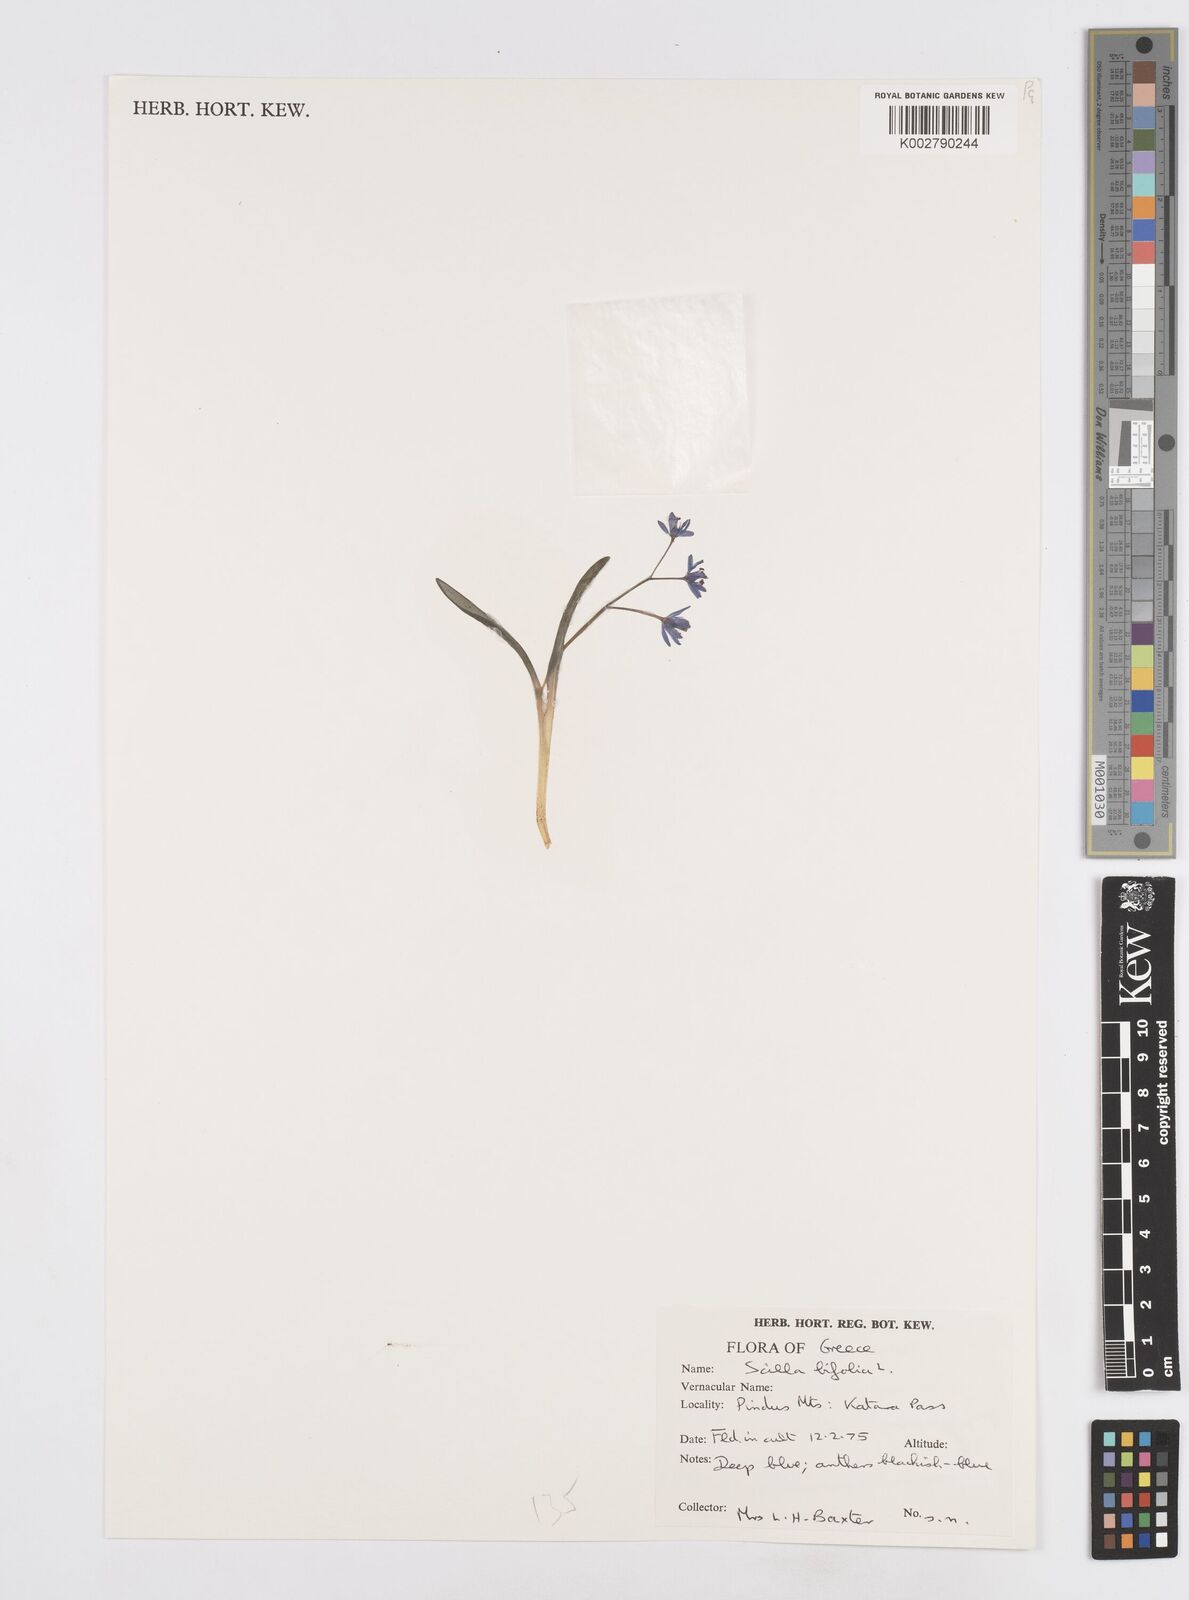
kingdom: Plantae
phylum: Tracheophyta
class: Liliopsida
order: Asparagales
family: Asparagaceae
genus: Scilla
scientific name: Scilla bifolia
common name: Alpine squill
